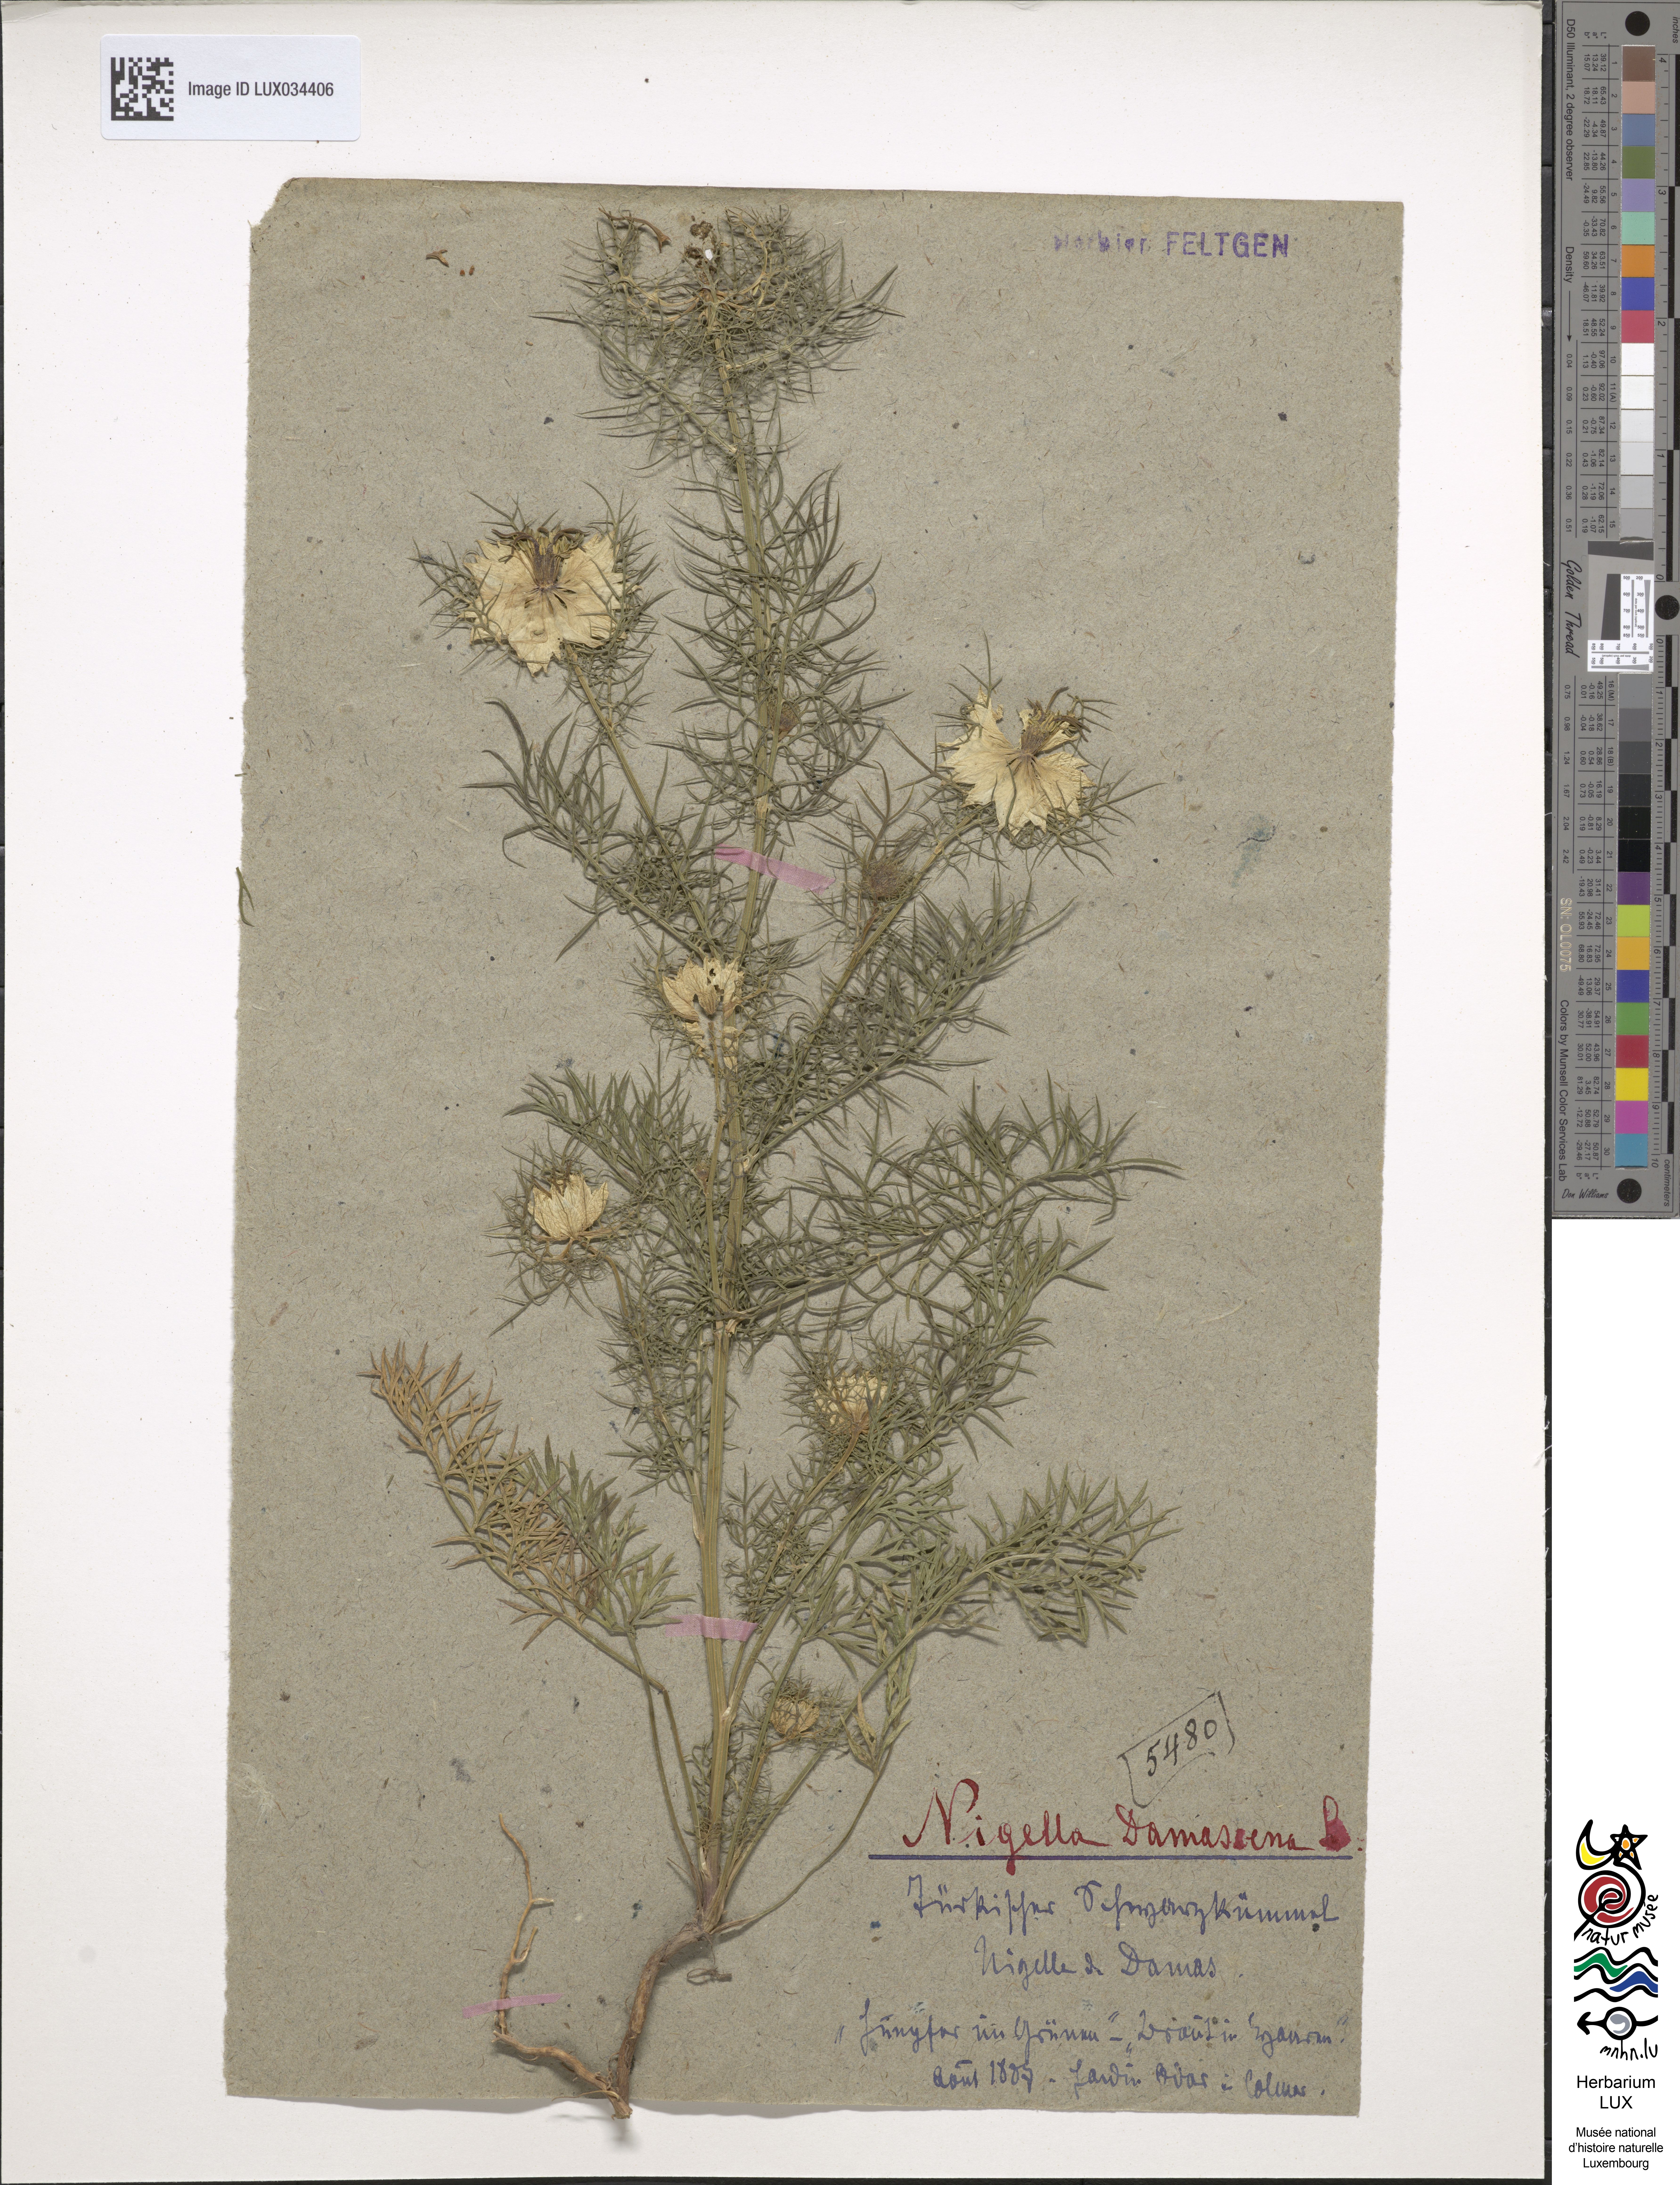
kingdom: Plantae
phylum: Tracheophyta
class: Magnoliopsida
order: Ranunculales
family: Ranunculaceae
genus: Nigella
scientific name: Nigella damascena
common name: Love-in-a-mist
